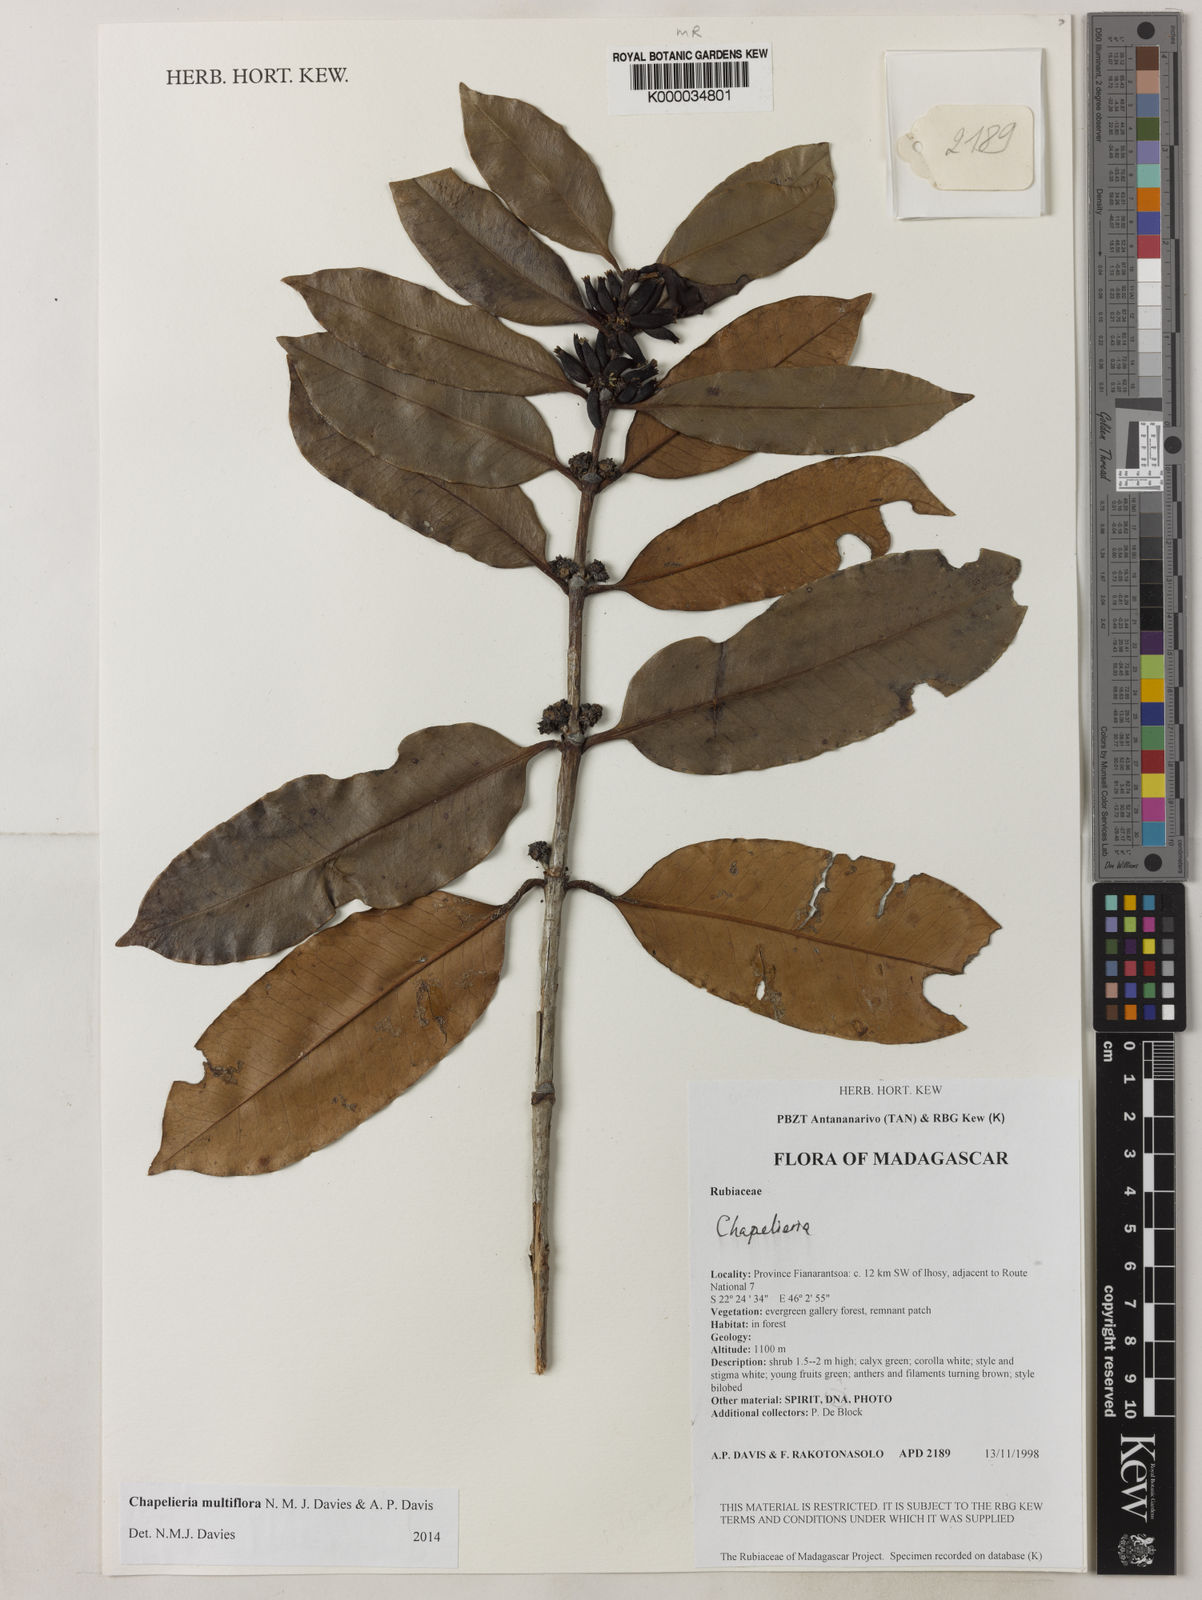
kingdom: Plantae
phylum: Tracheophyta
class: Magnoliopsida
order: Gentianales
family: Rubiaceae
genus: Chapelieria
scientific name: Chapelieria multiflora
